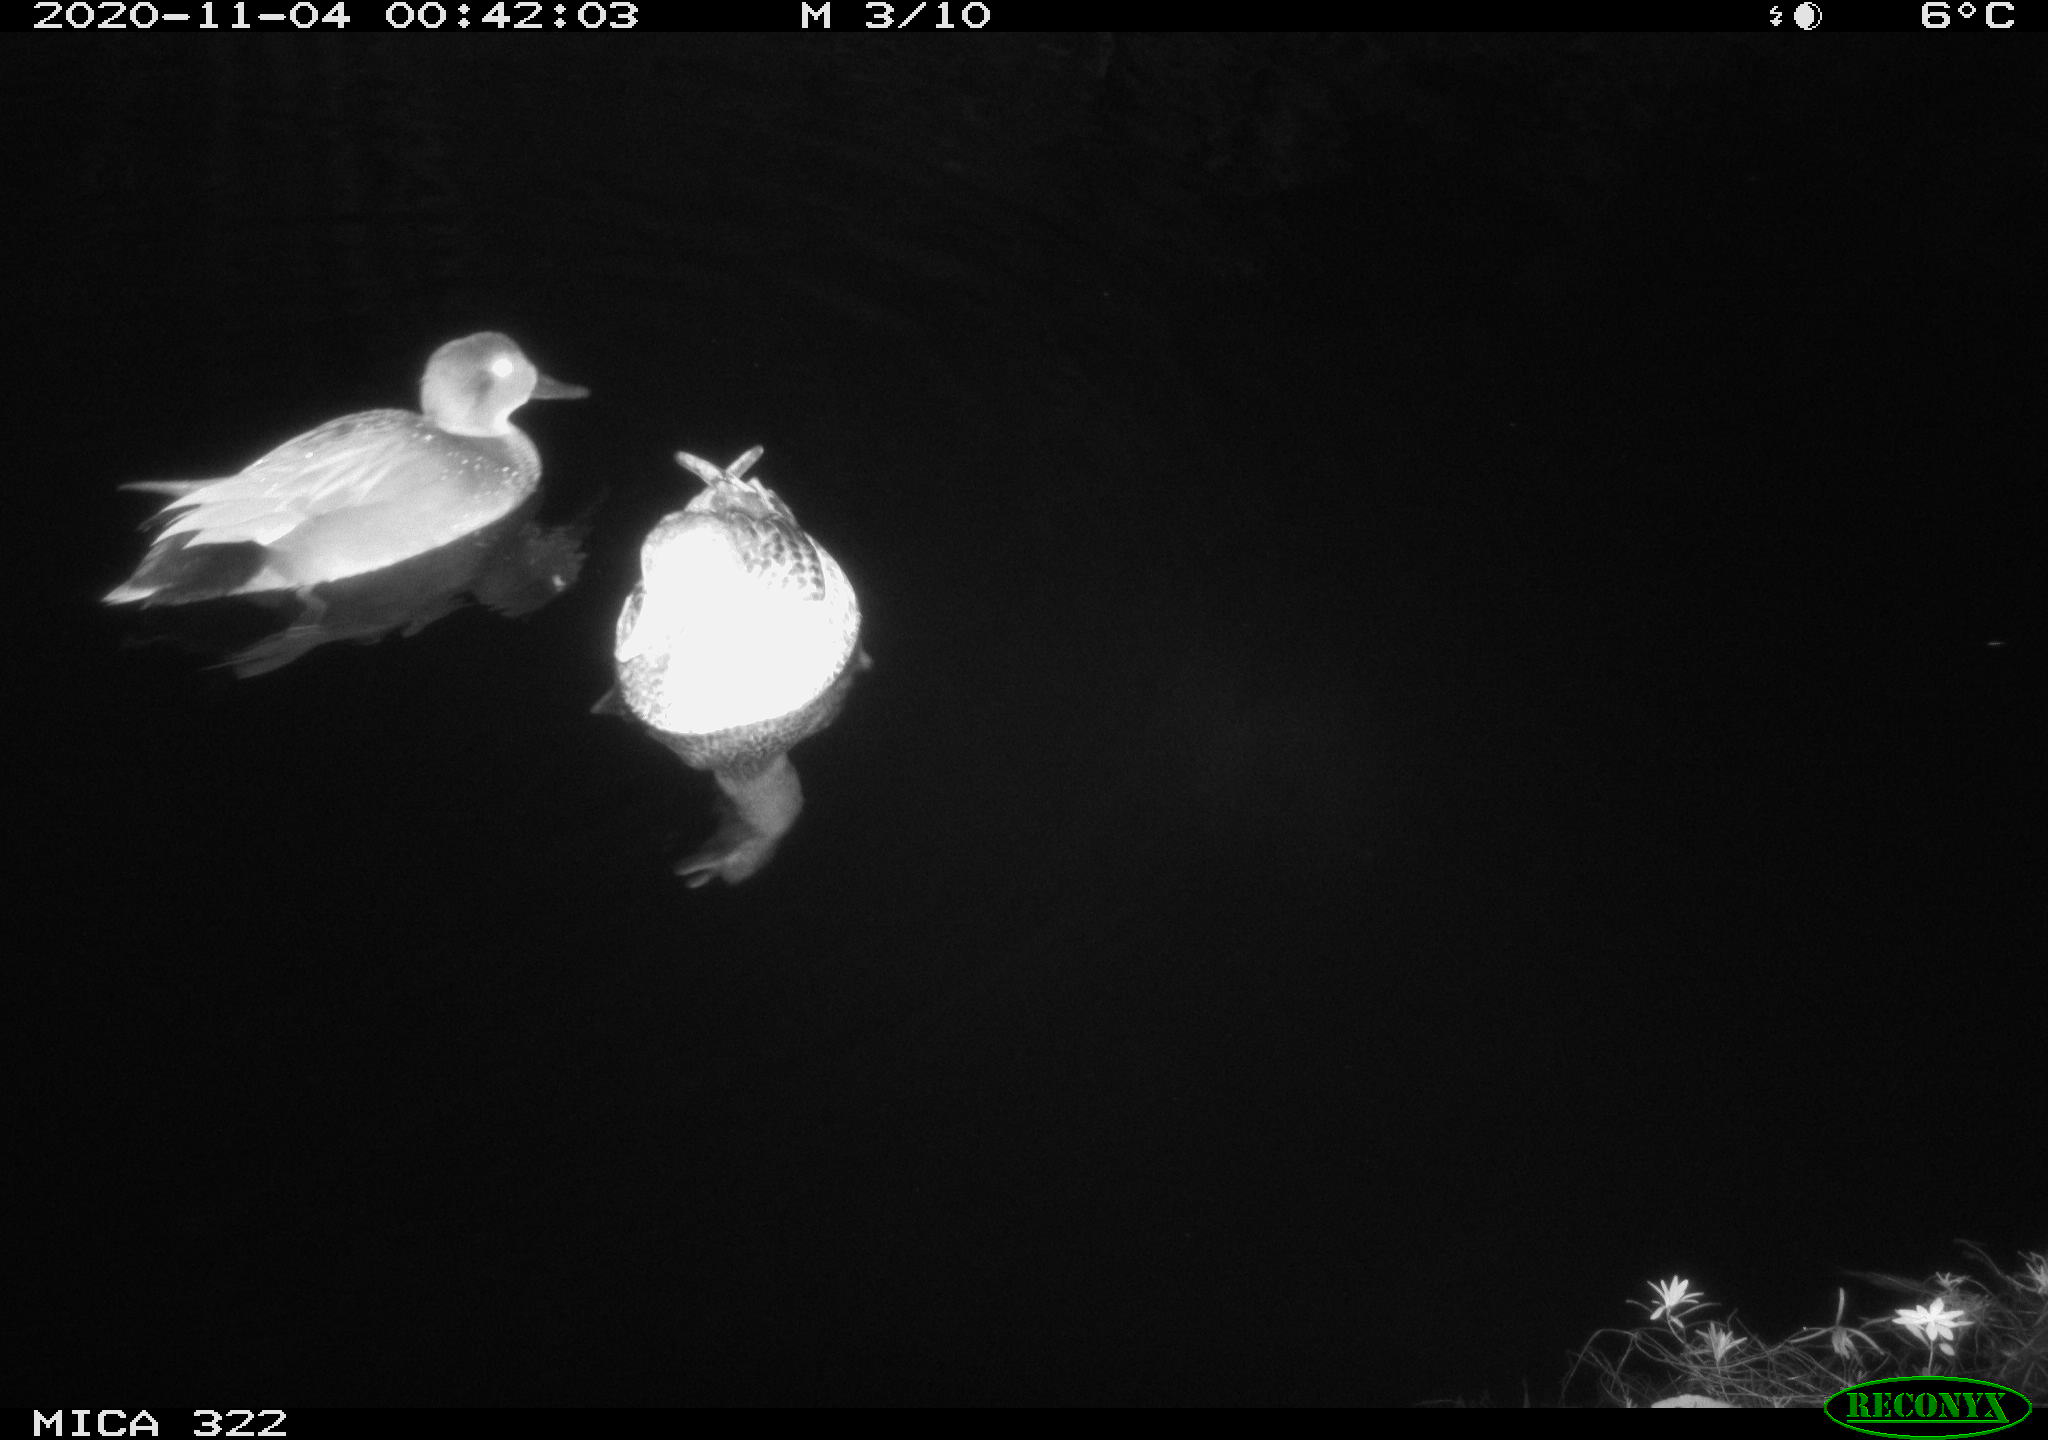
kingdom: Animalia
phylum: Chordata
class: Aves
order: Anseriformes
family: Anatidae
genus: Anas
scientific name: Anas platyrhynchos
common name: Mallard
